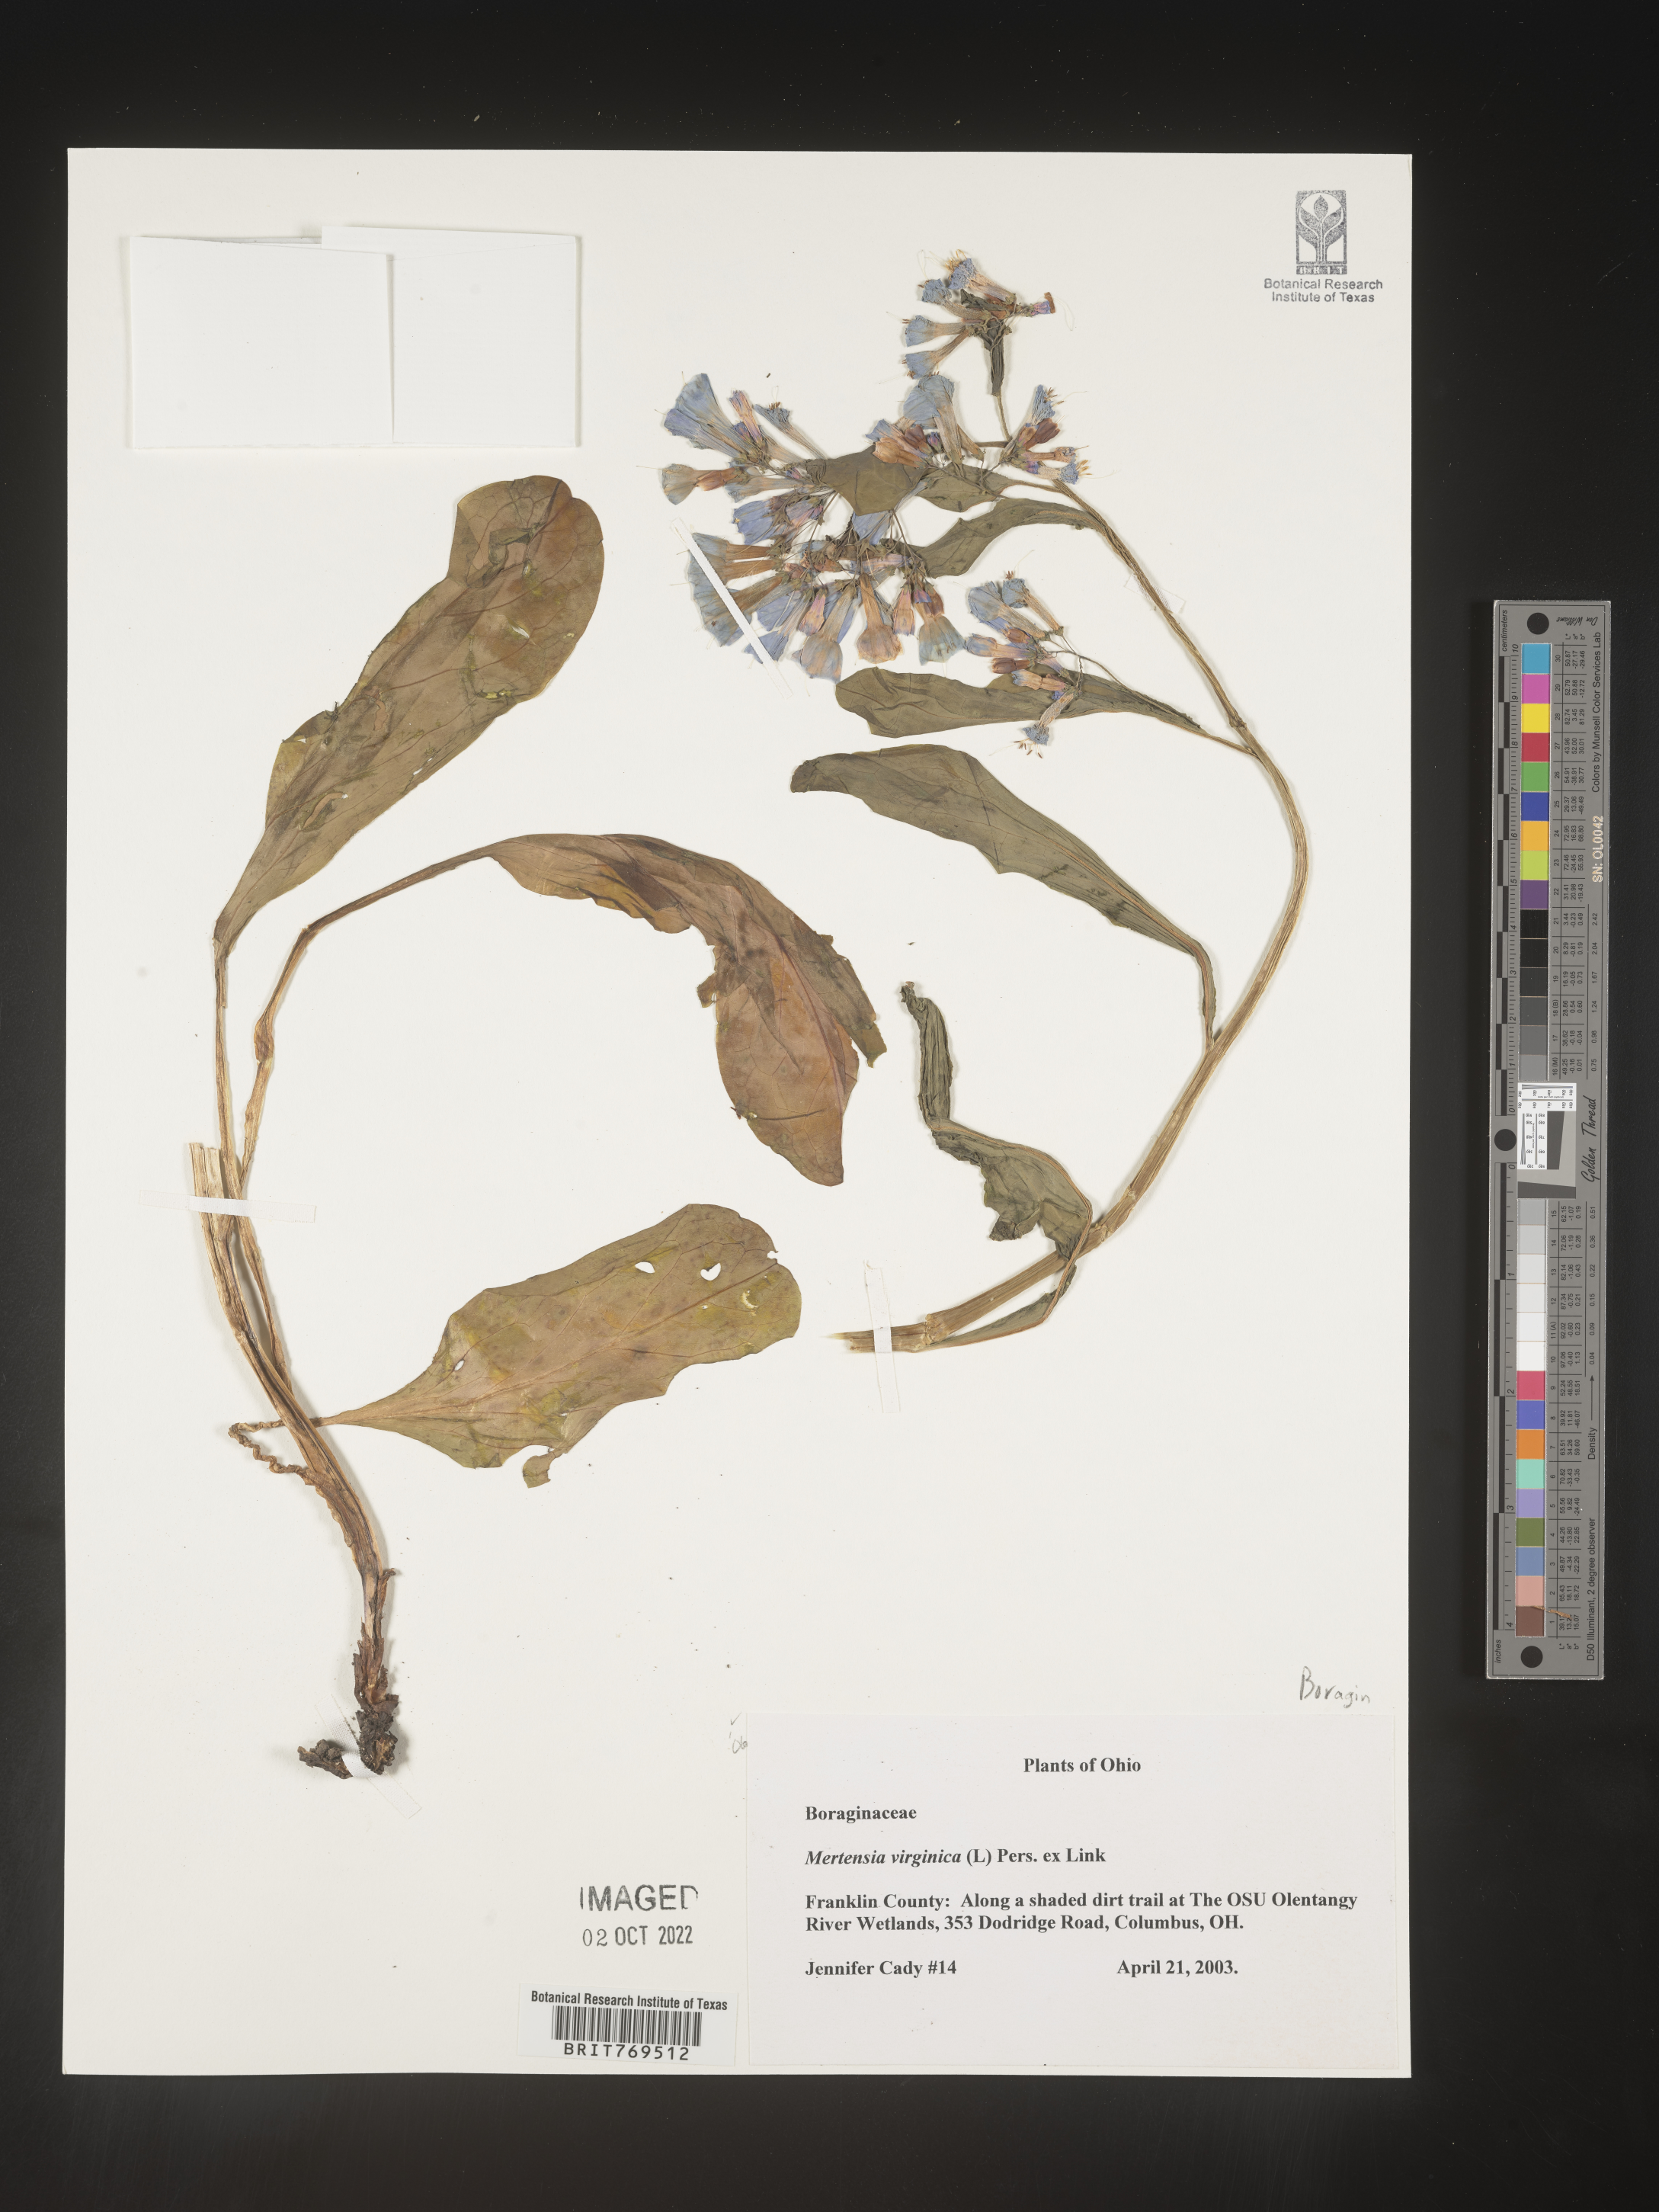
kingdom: Plantae
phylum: Tracheophyta
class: Magnoliopsida
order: Boraginales
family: Boraginaceae
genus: Mertensia
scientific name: Mertensia virginica
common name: Virginia bluebells
